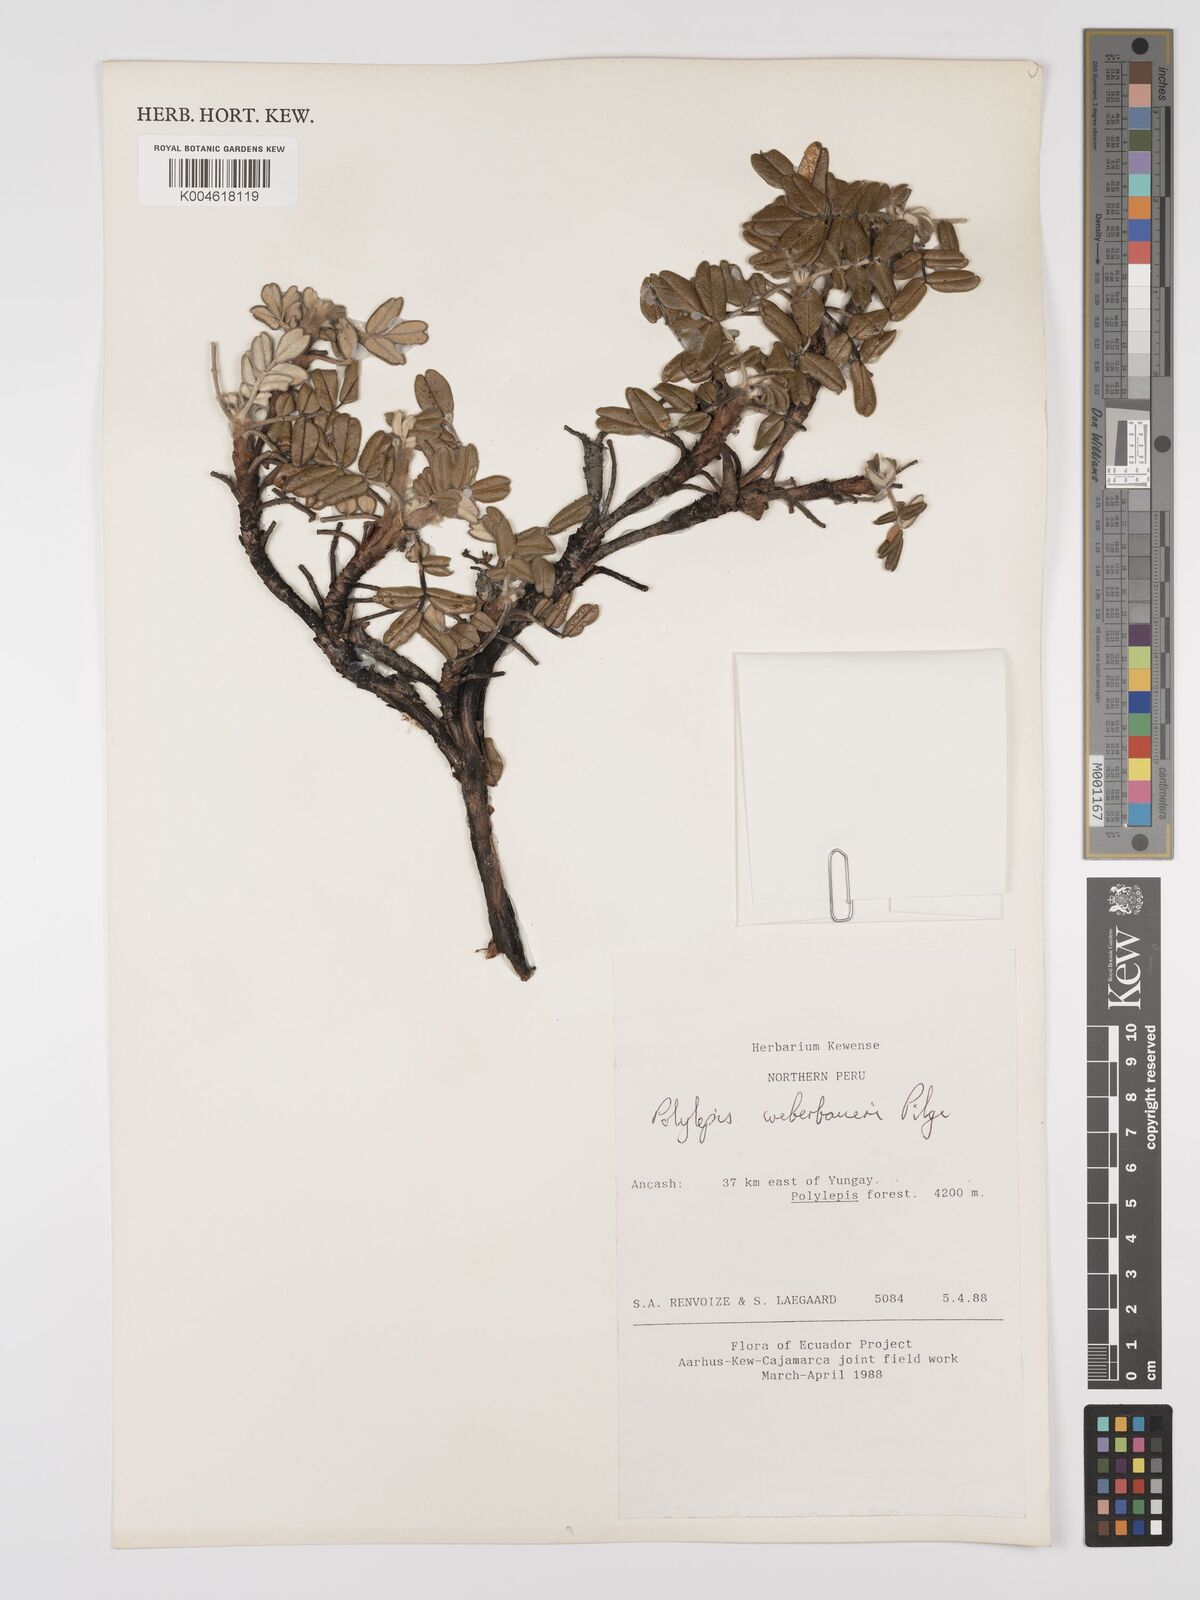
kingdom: Plantae
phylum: Tracheophyta
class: Magnoliopsida
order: Rosales
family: Rosaceae
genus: Polylepis
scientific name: Polylepis weberbaueri
